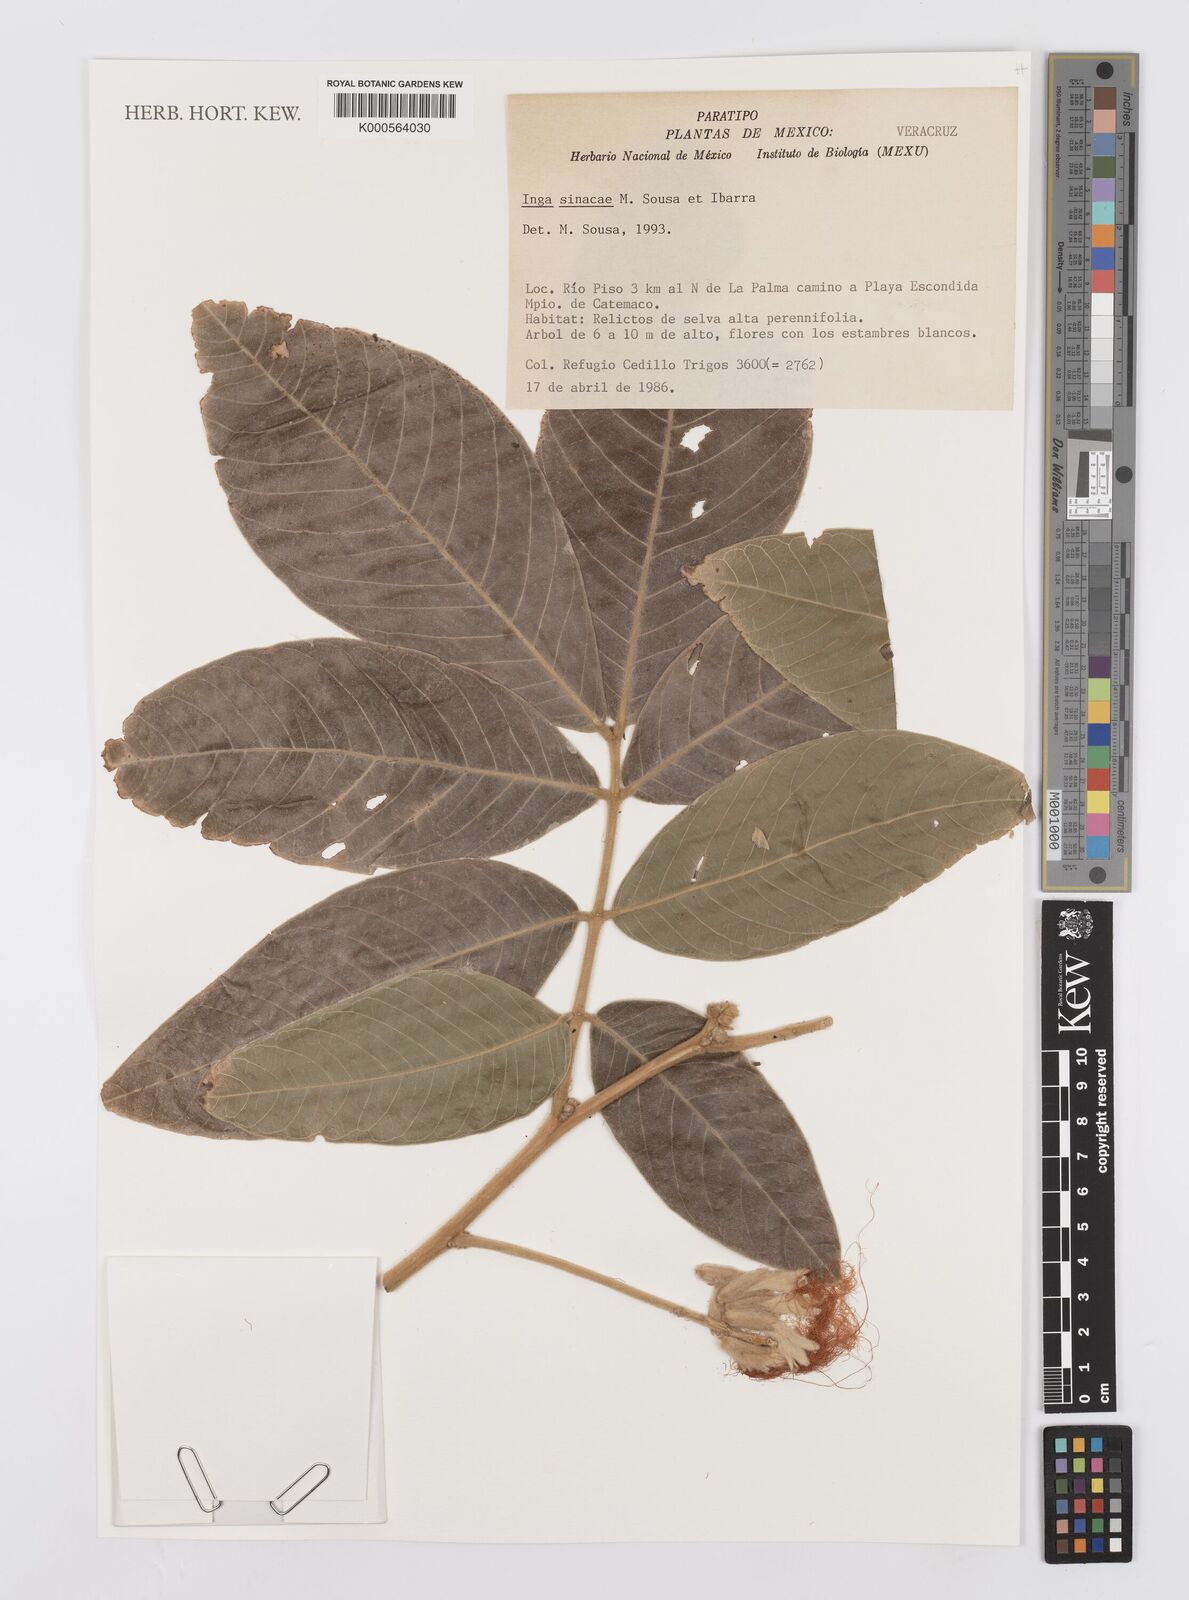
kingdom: Plantae
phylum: Tracheophyta
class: Magnoliopsida
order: Fabales
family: Fabaceae
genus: Inga
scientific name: Inga sinacae
